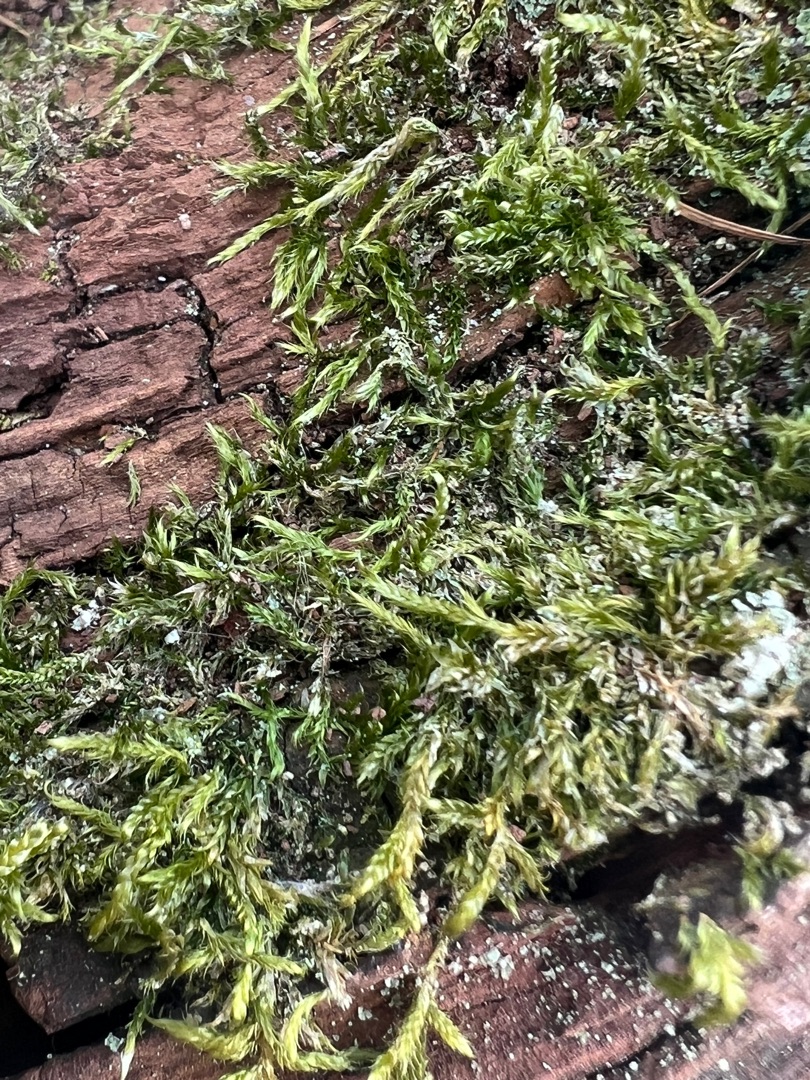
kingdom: Plantae
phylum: Bryophyta
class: Bryopsida
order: Hypnales
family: Hypnaceae
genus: Hypnum
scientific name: Hypnum
